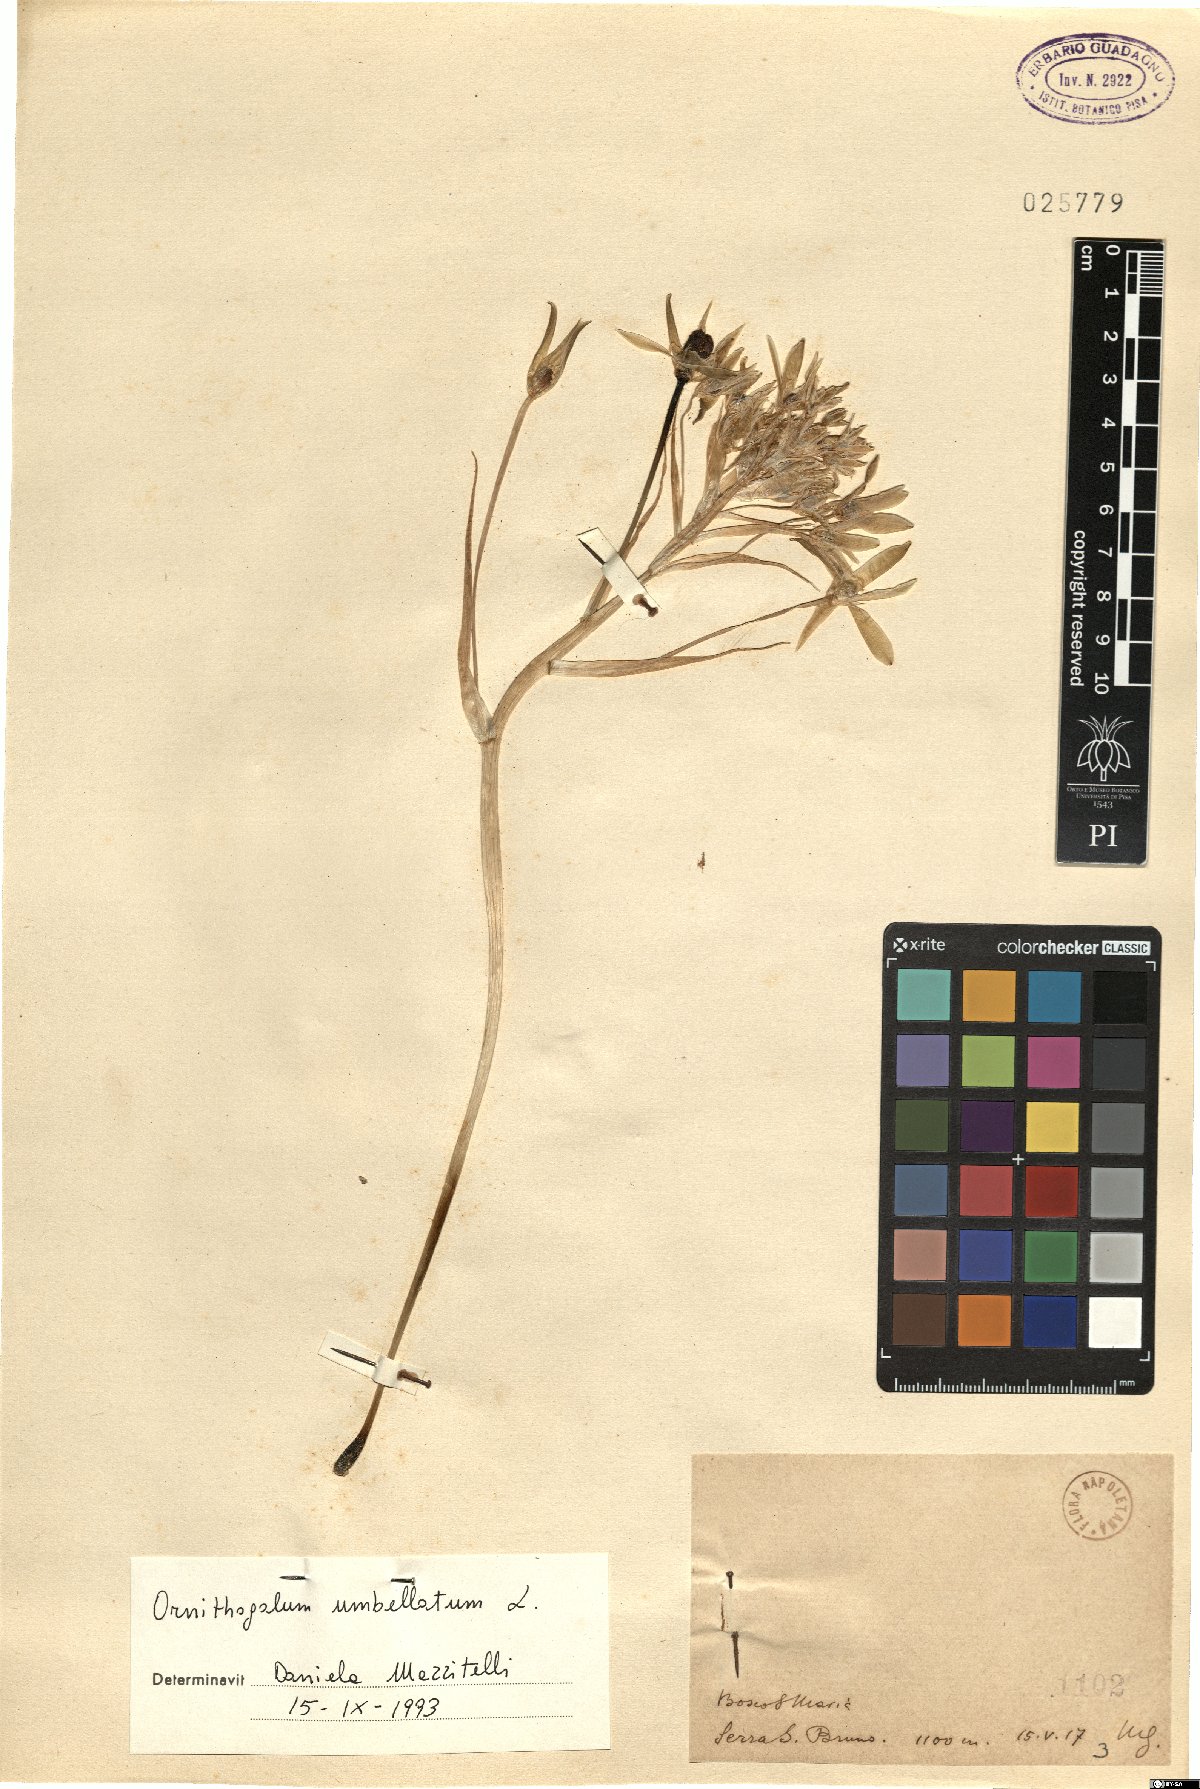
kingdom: Plantae
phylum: Tracheophyta
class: Liliopsida
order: Asparagales
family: Asparagaceae
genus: Ornithogalum
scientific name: Ornithogalum umbellatum
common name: Garden star-of-bethlehem
